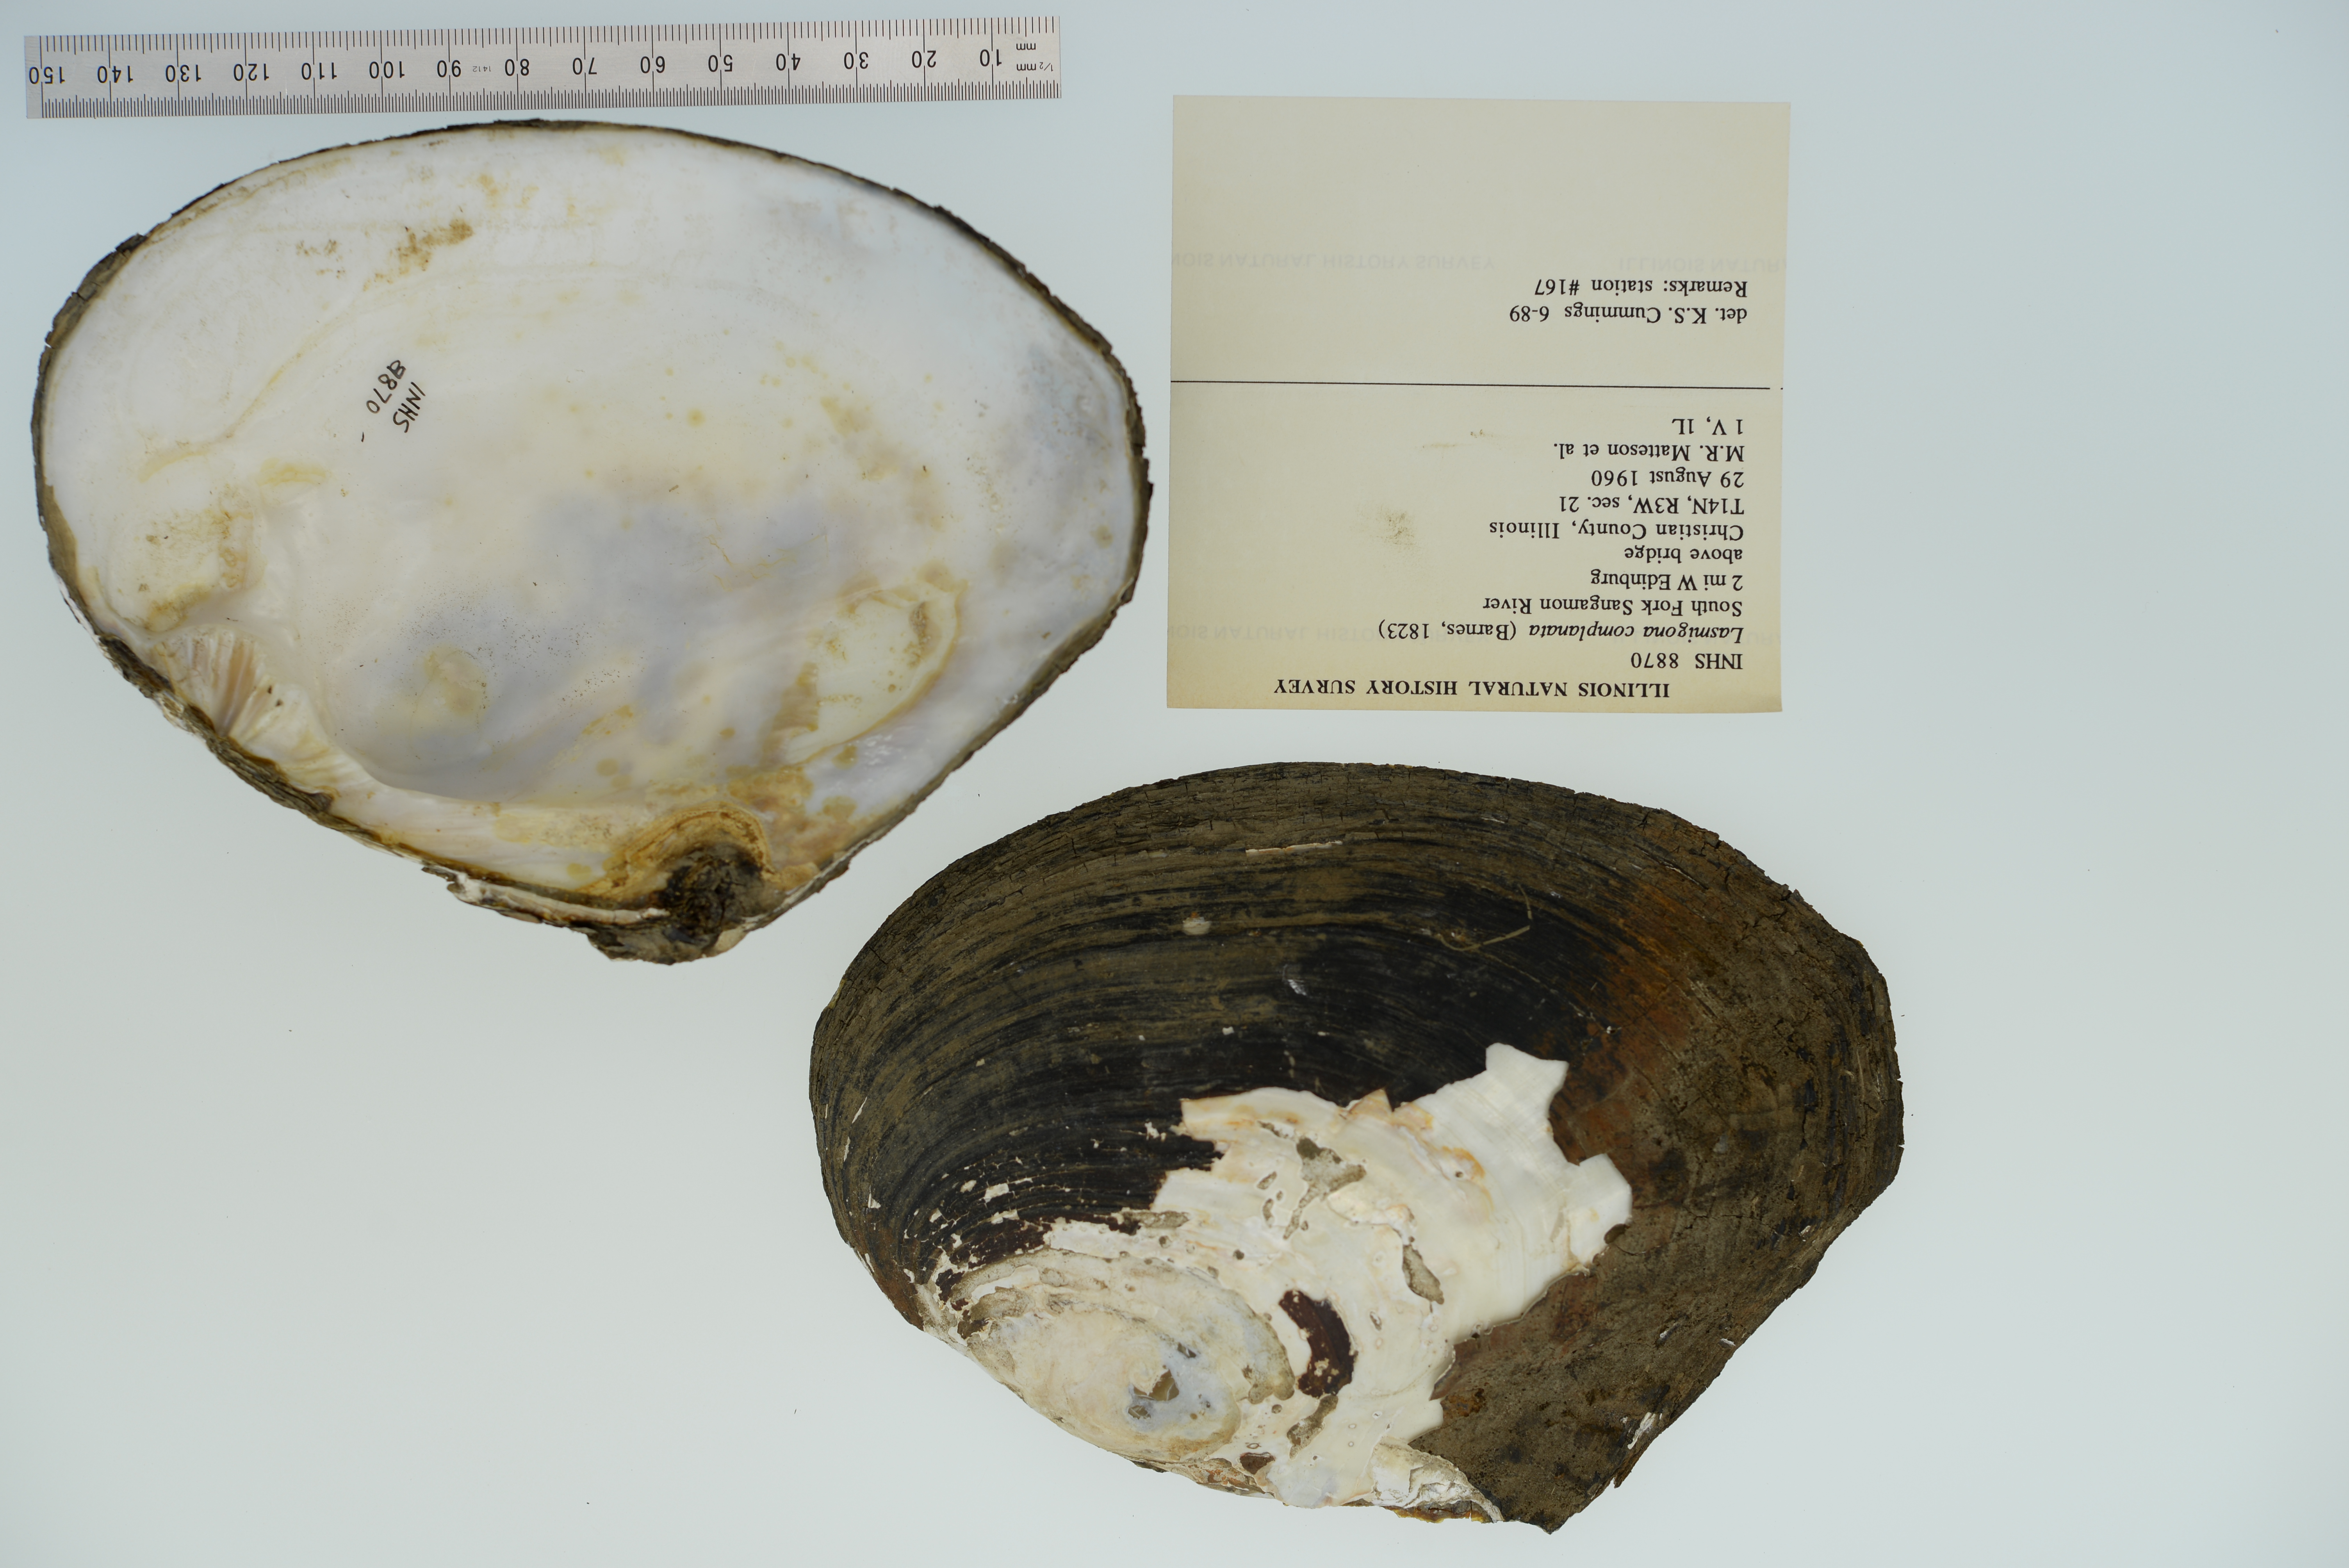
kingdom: Animalia
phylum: Mollusca
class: Bivalvia
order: Unionida
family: Unionidae
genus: Lasmigona
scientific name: Lasmigona complanata
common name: White heelsplitter
